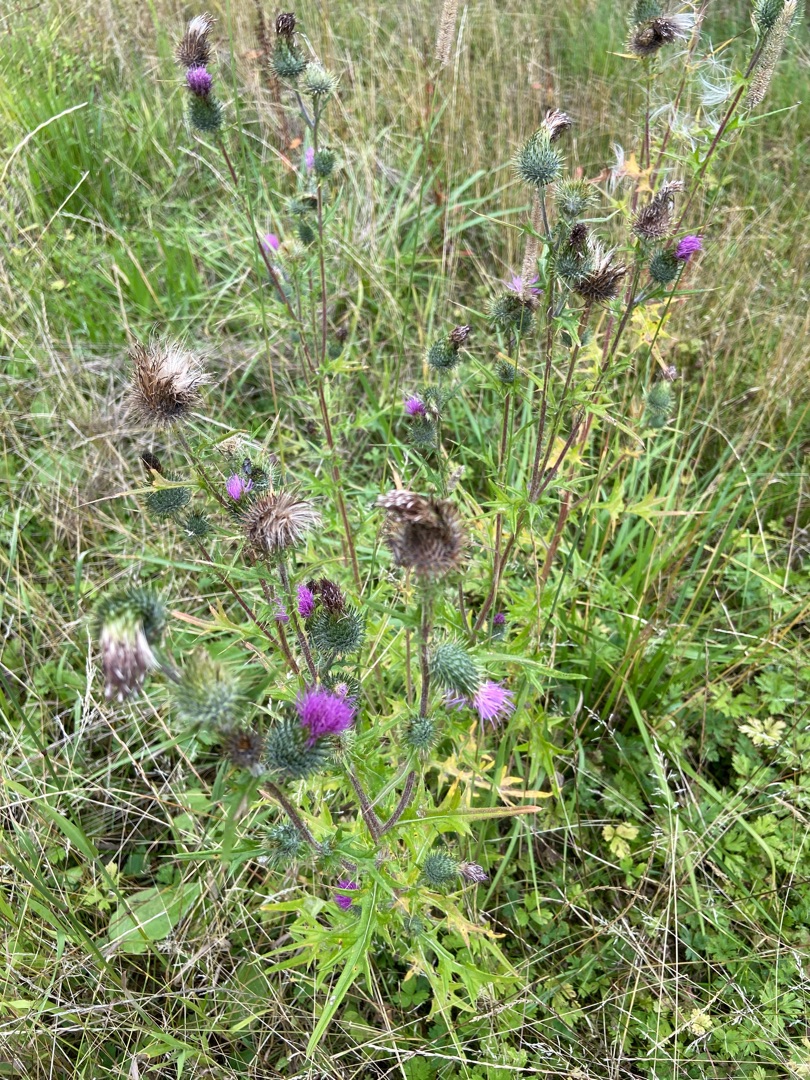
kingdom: Plantae
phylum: Tracheophyta
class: Magnoliopsida
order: Asterales
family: Asteraceae
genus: Cirsium
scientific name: Cirsium vulgare
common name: Horse-tidsel
